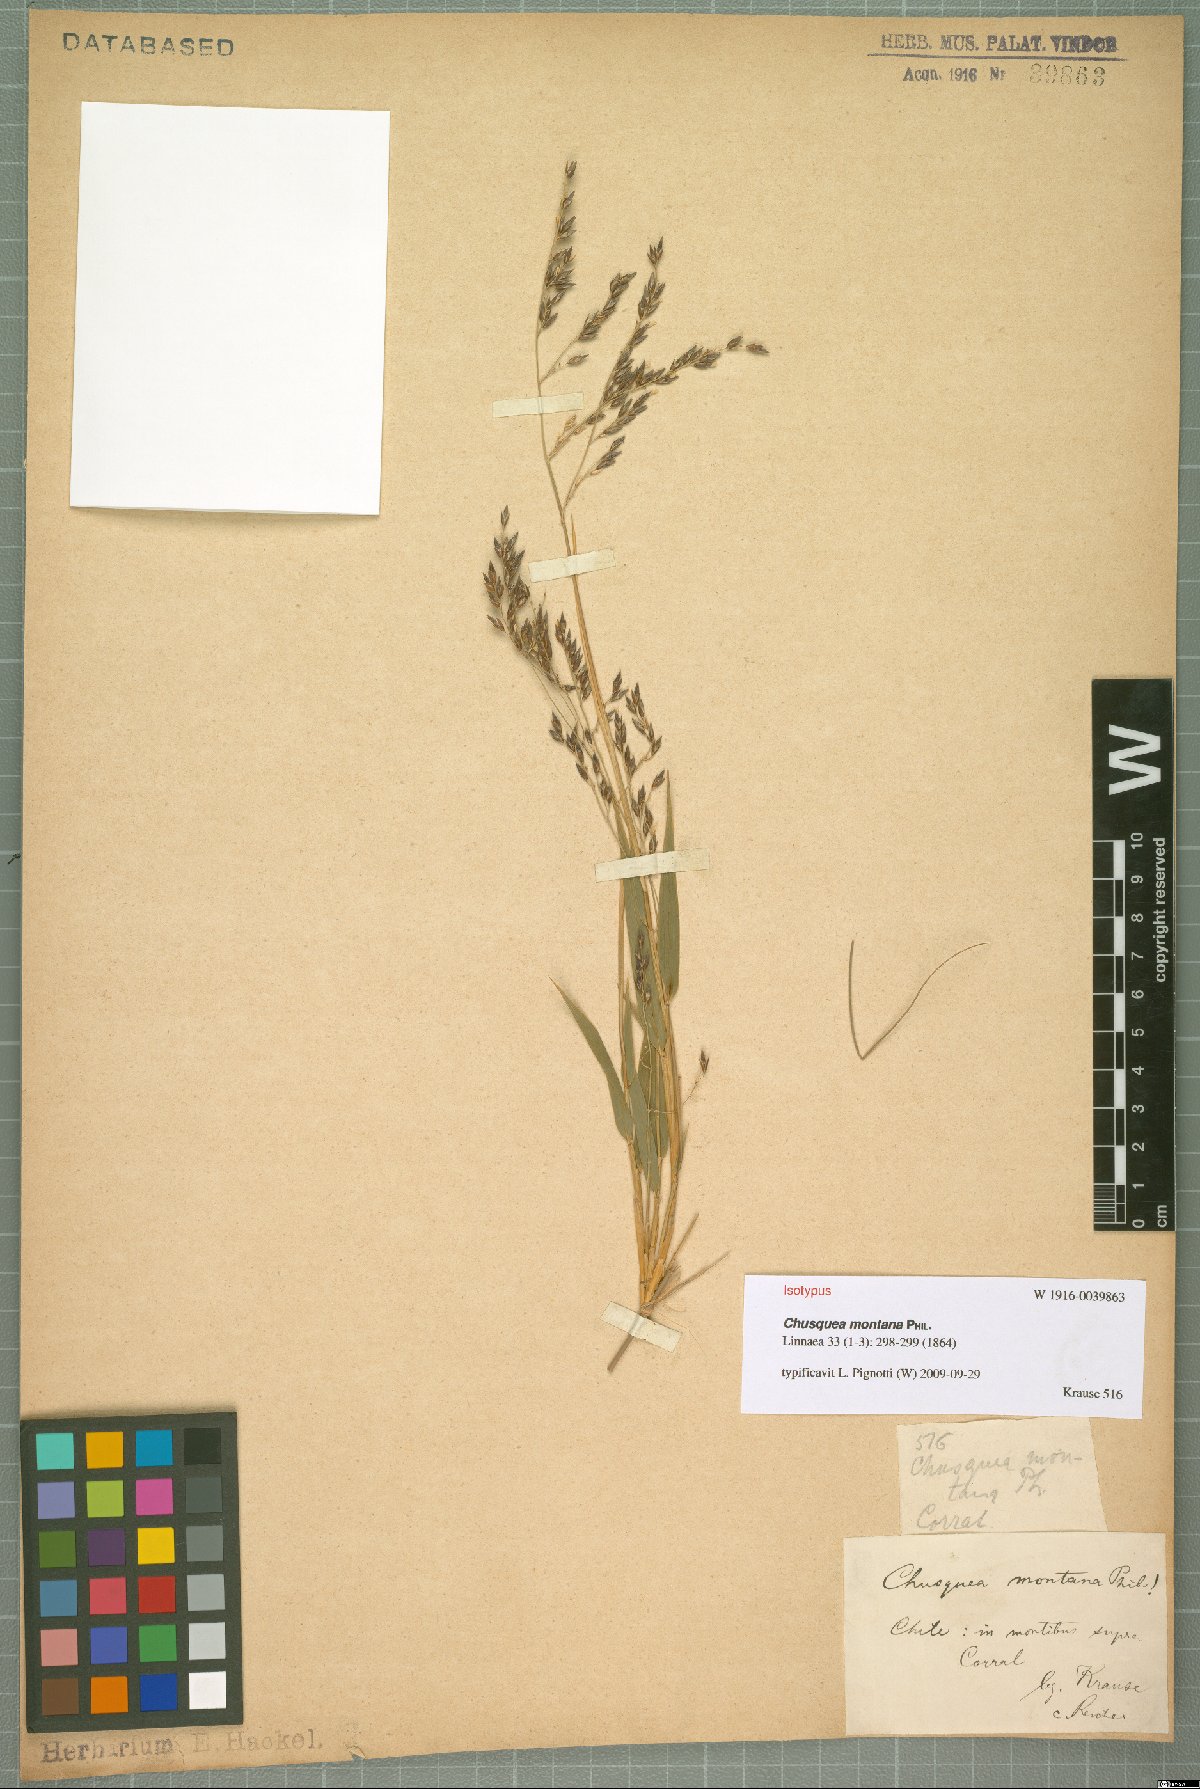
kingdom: Plantae
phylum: Tracheophyta
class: Liliopsida
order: Poales
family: Poaceae
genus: Chusquea
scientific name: Chusquea montana
